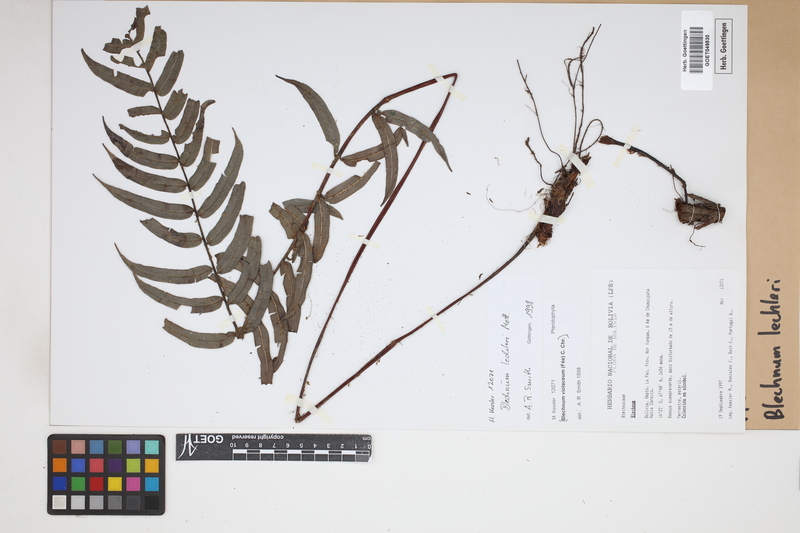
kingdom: Plantae
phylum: Tracheophyta
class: Polypodiopsida
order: Polypodiales
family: Blechnaceae
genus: Parablechnum
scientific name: Parablechnum lechleri
